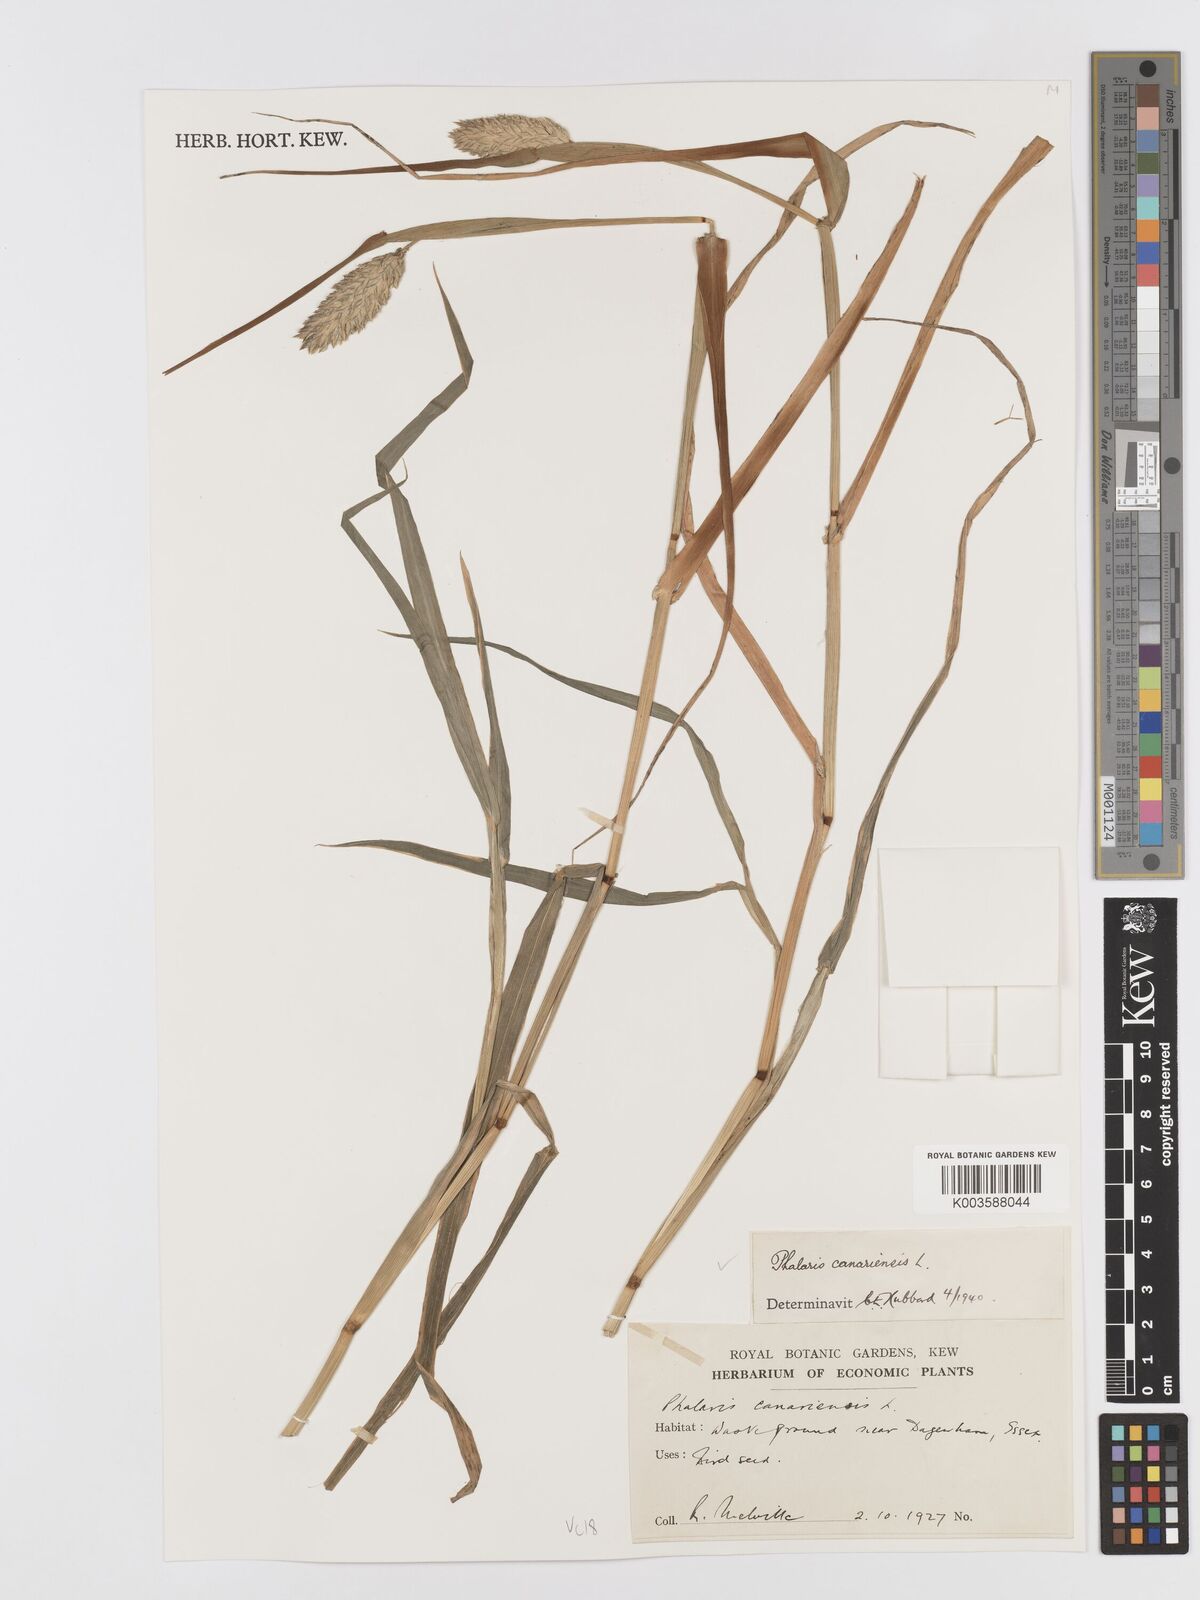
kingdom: Plantae
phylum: Tracheophyta
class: Liliopsida
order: Poales
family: Poaceae
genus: Phalaris
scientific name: Phalaris canariensis
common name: Annual canarygrass
